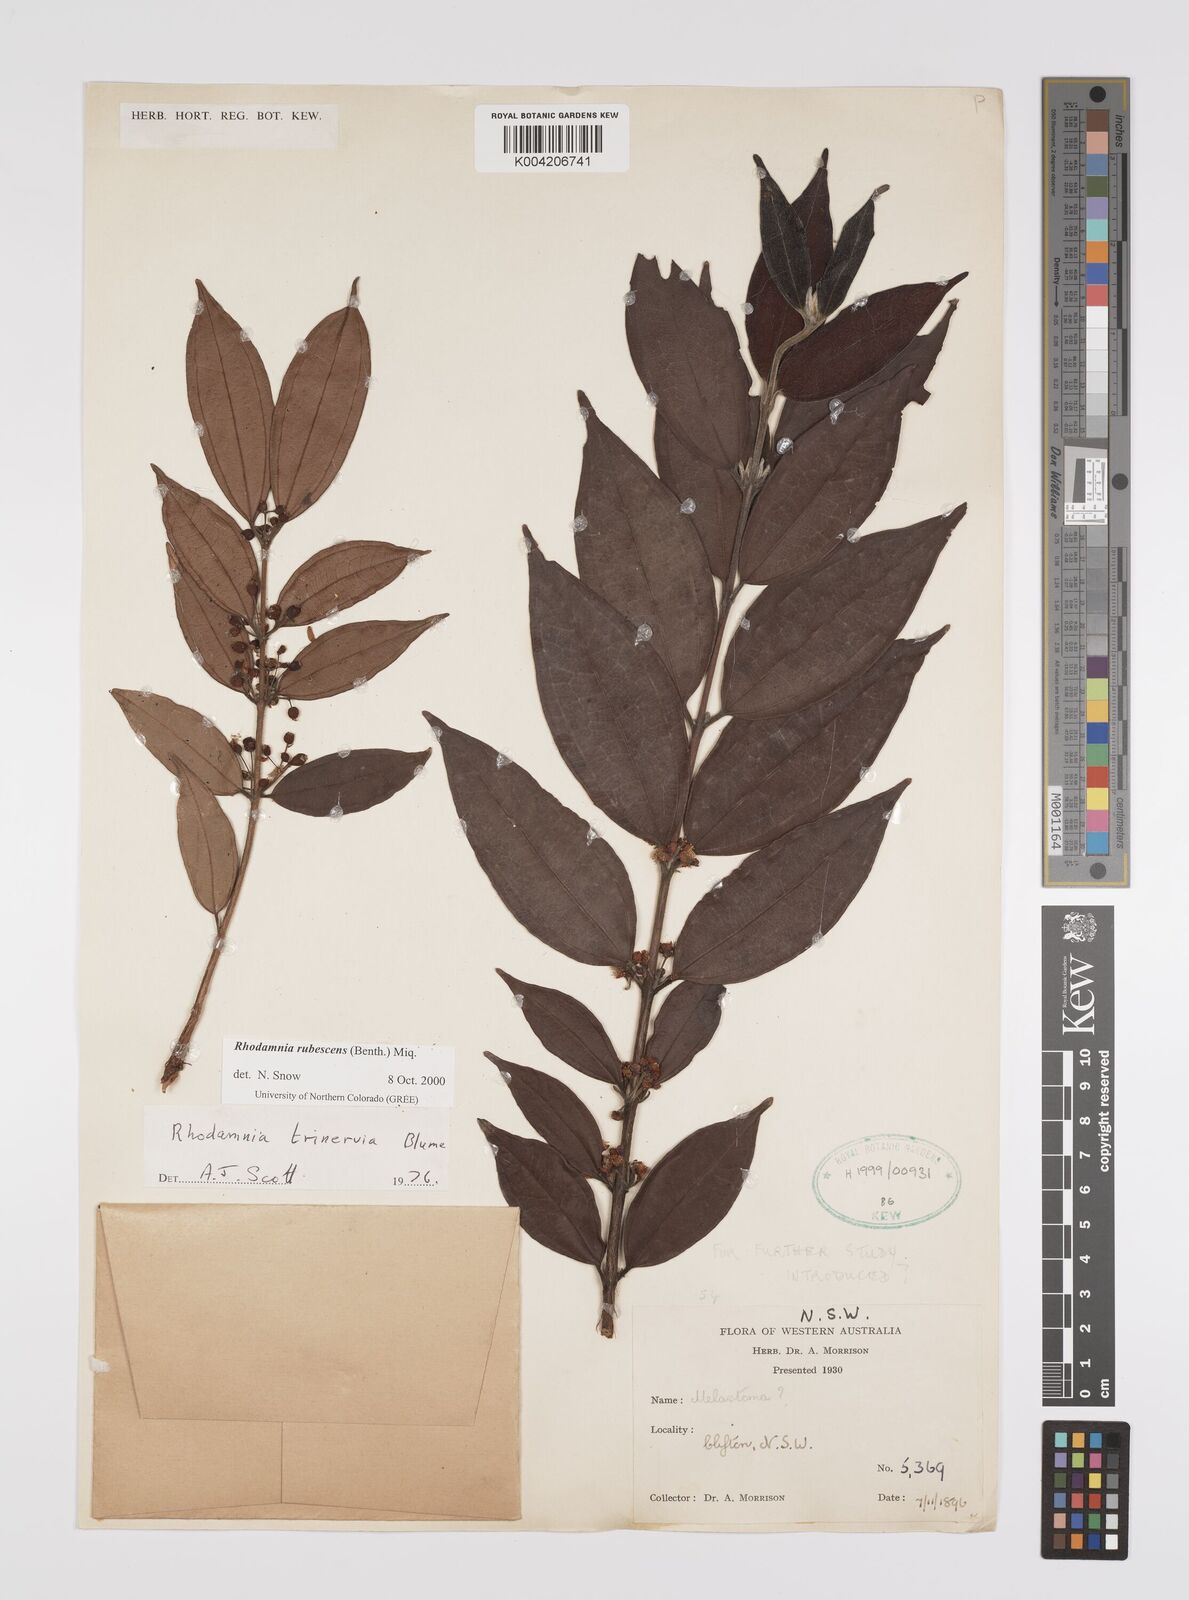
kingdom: Plantae
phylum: Tracheophyta
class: Magnoliopsida
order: Myrtales
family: Myrtaceae
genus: Rhodamnia
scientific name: Rhodamnia rubescens
